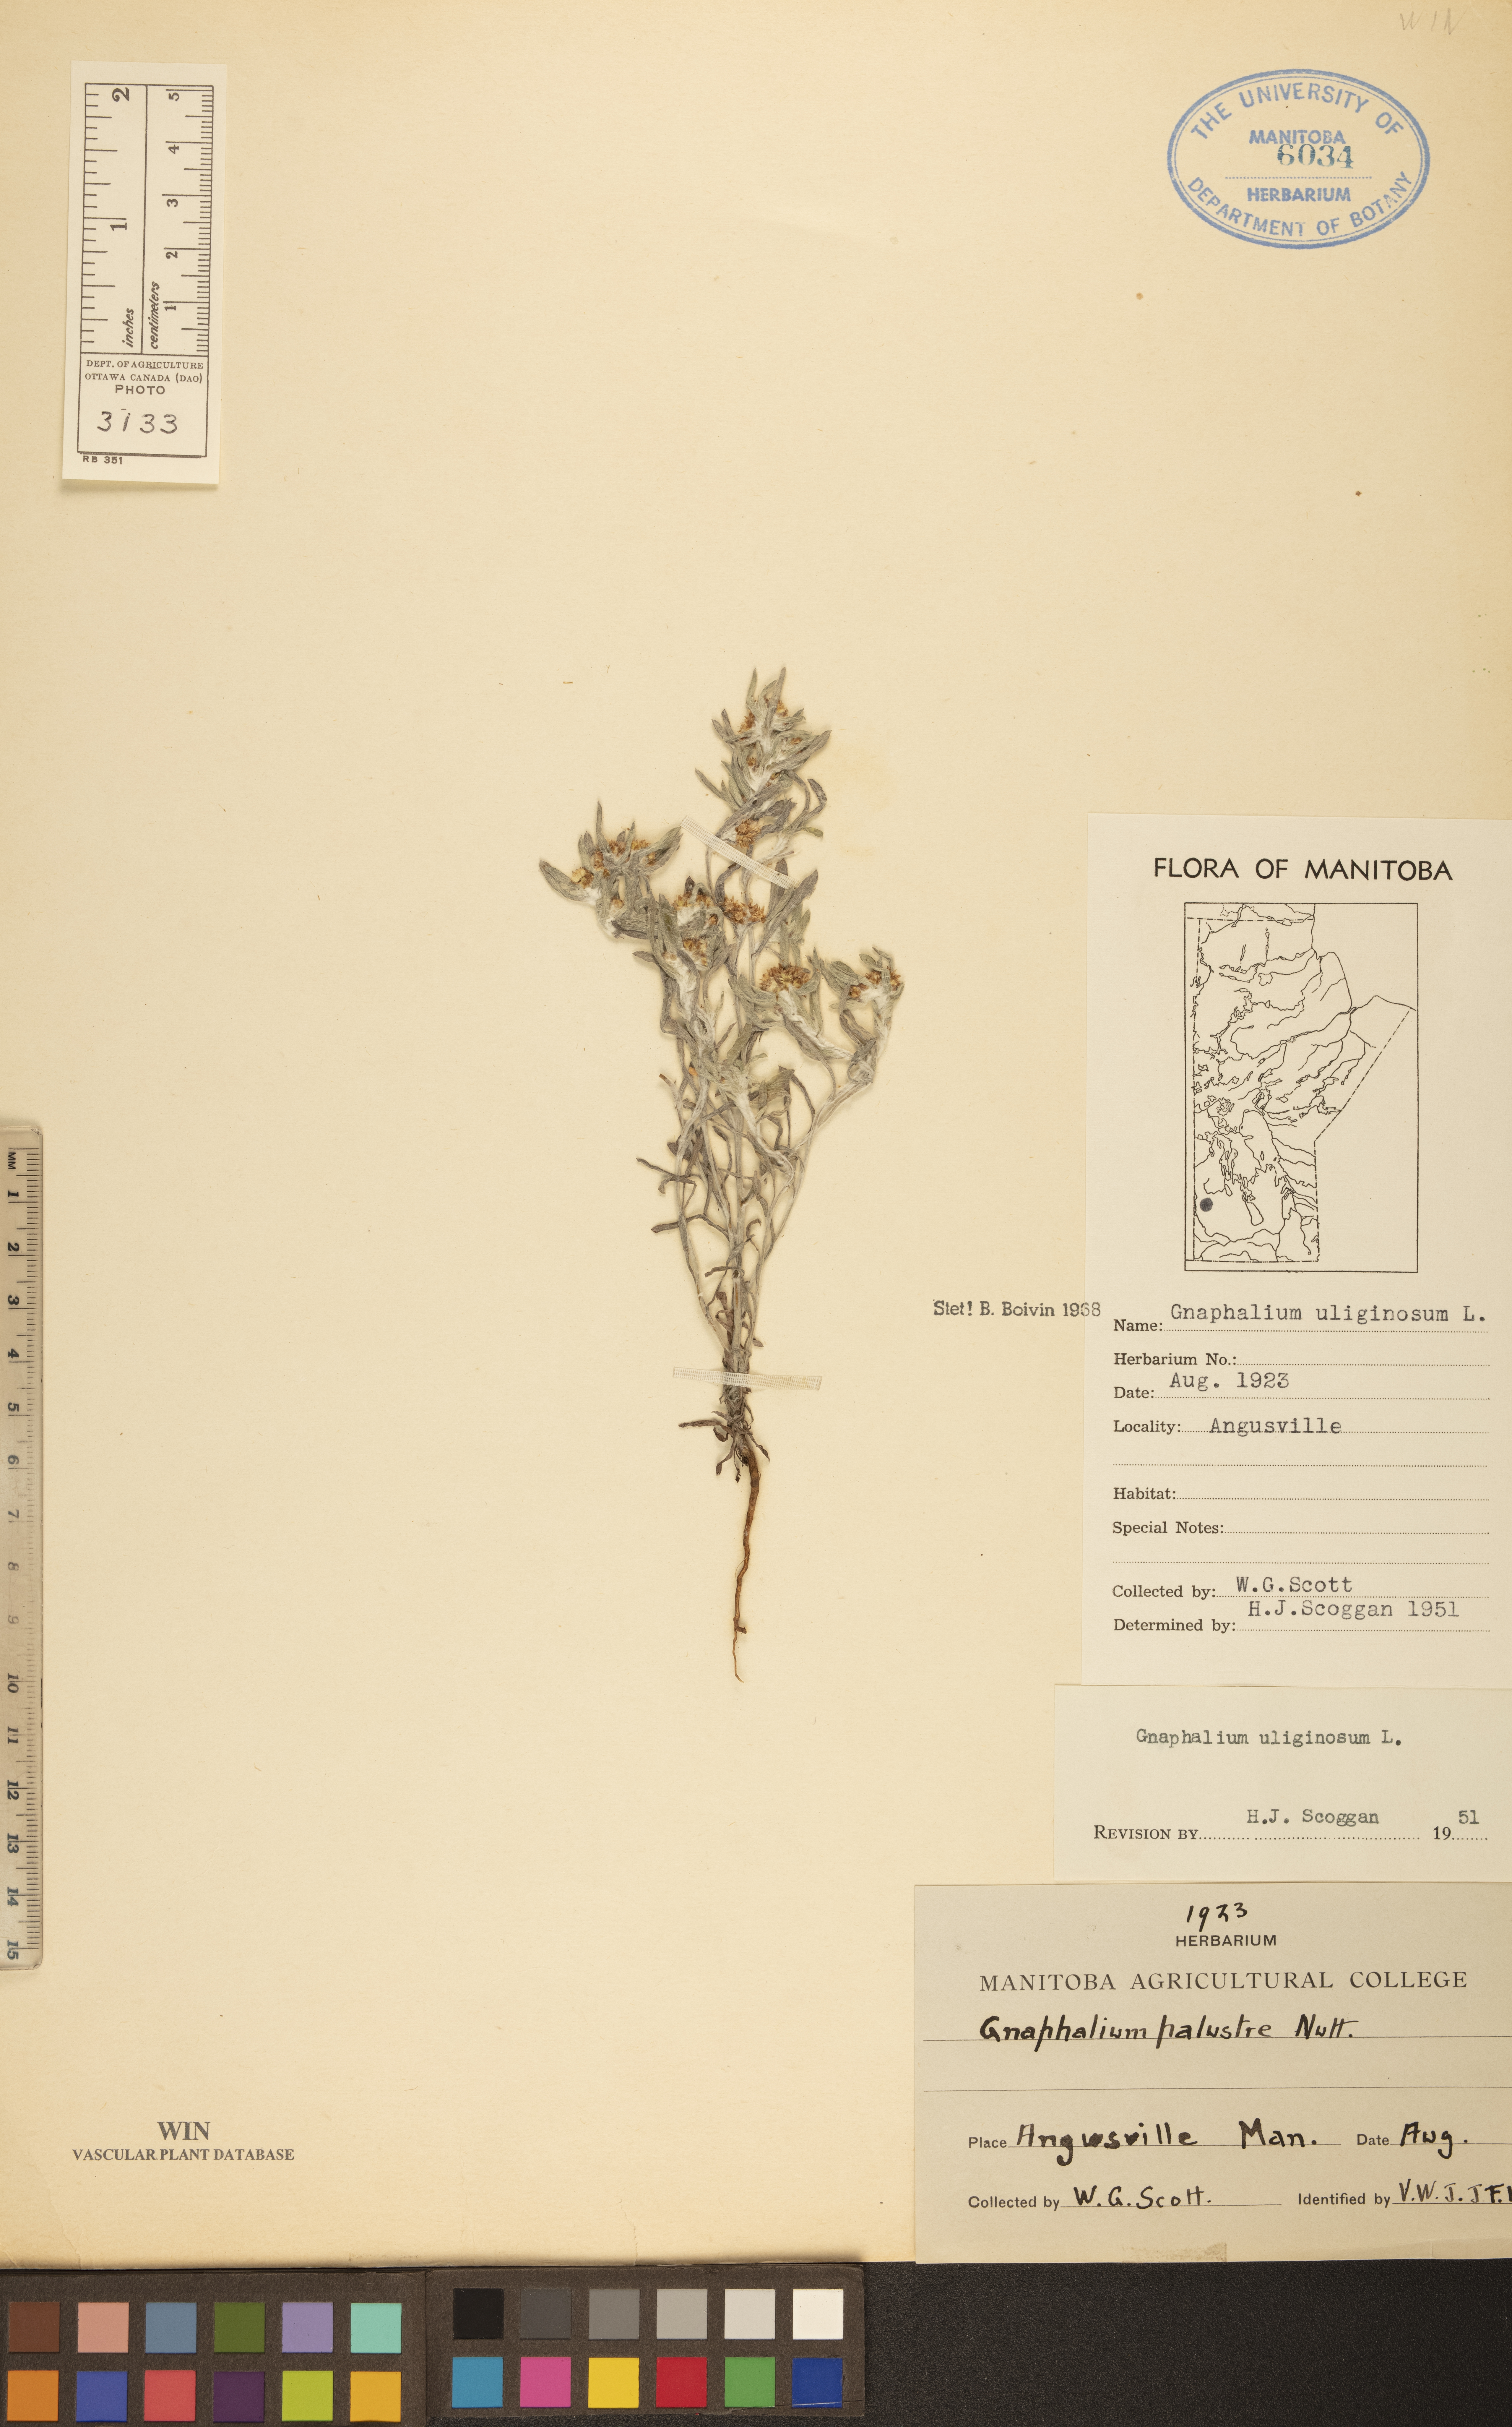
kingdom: Plantae
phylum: Tracheophyta
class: Magnoliopsida
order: Asterales
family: Asteraceae
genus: Gnaphalium
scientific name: Gnaphalium palustre
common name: Western marsh cudweed
